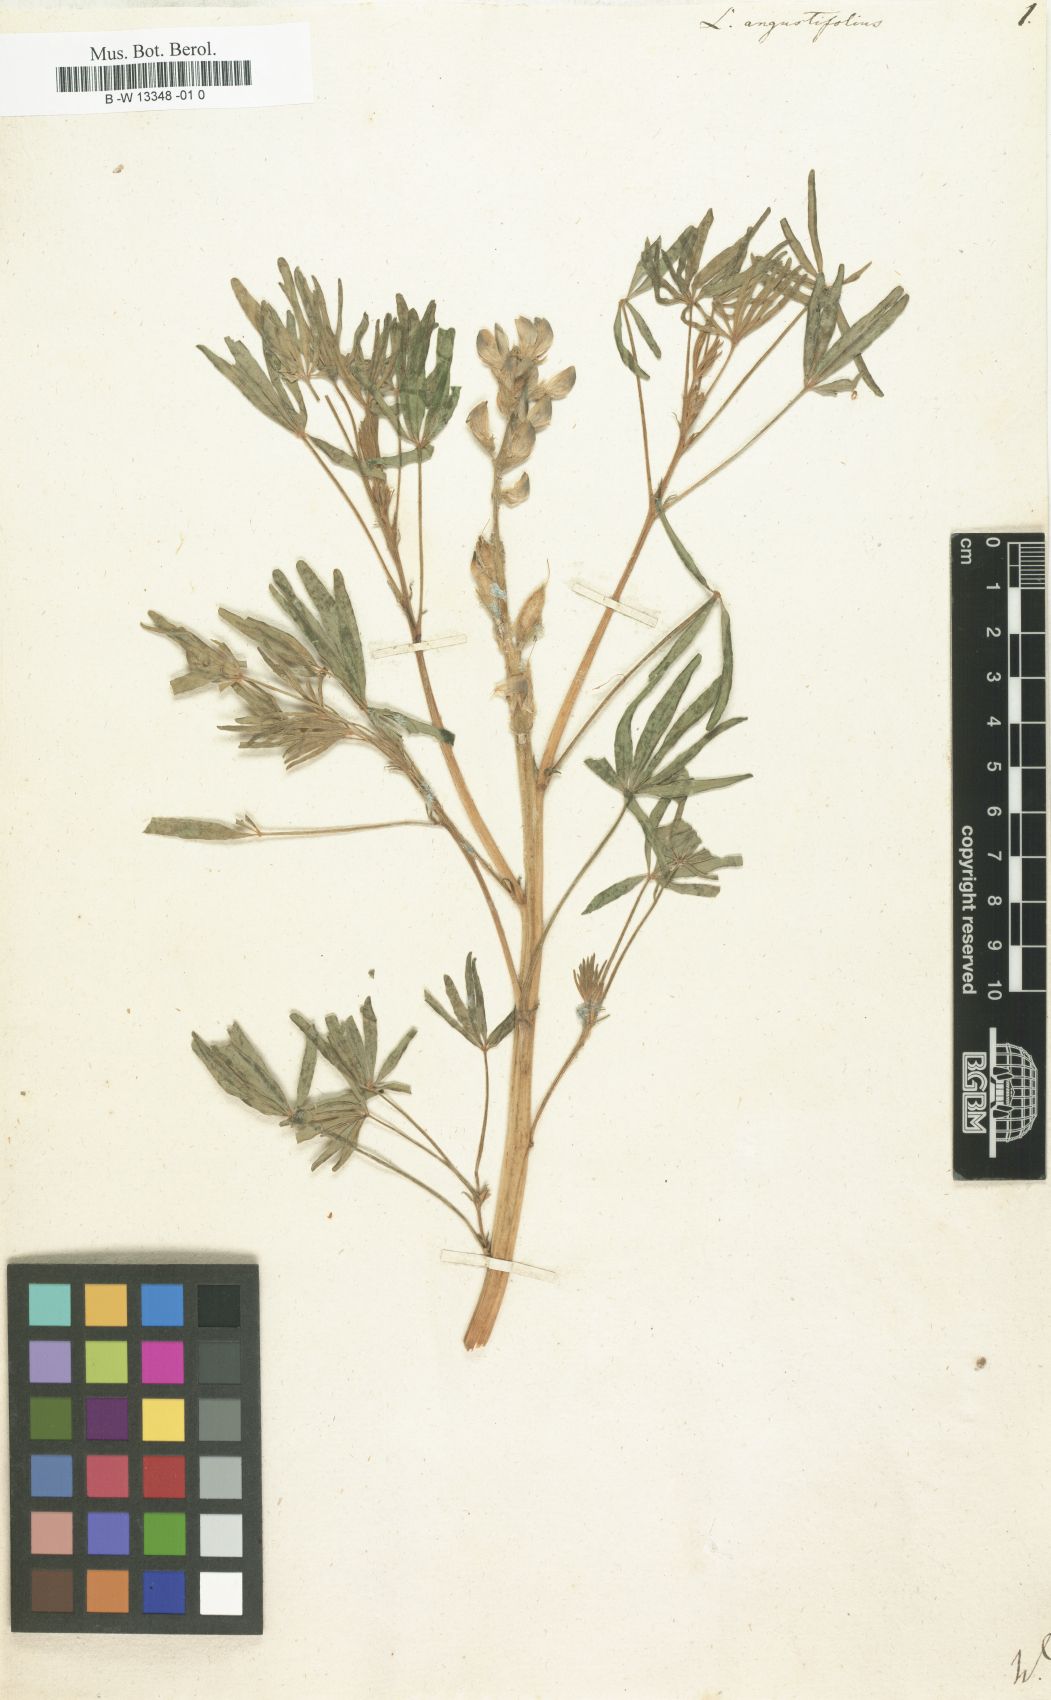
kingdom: Plantae
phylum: Tracheophyta
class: Magnoliopsida
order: Fabales
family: Fabaceae
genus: Lupinus
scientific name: Lupinus angustifolius
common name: Narrow-leaved lupin
